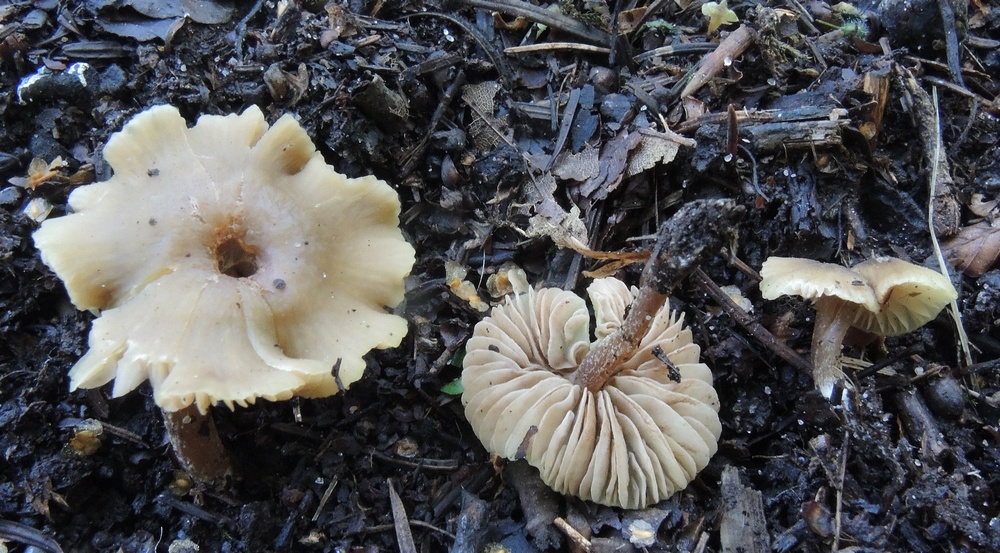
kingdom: Fungi
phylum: Basidiomycota
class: Agaricomycetes
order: Agaricales
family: Entolomataceae
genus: Entoloma
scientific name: Entoloma pleopodium
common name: duftende rødblad
